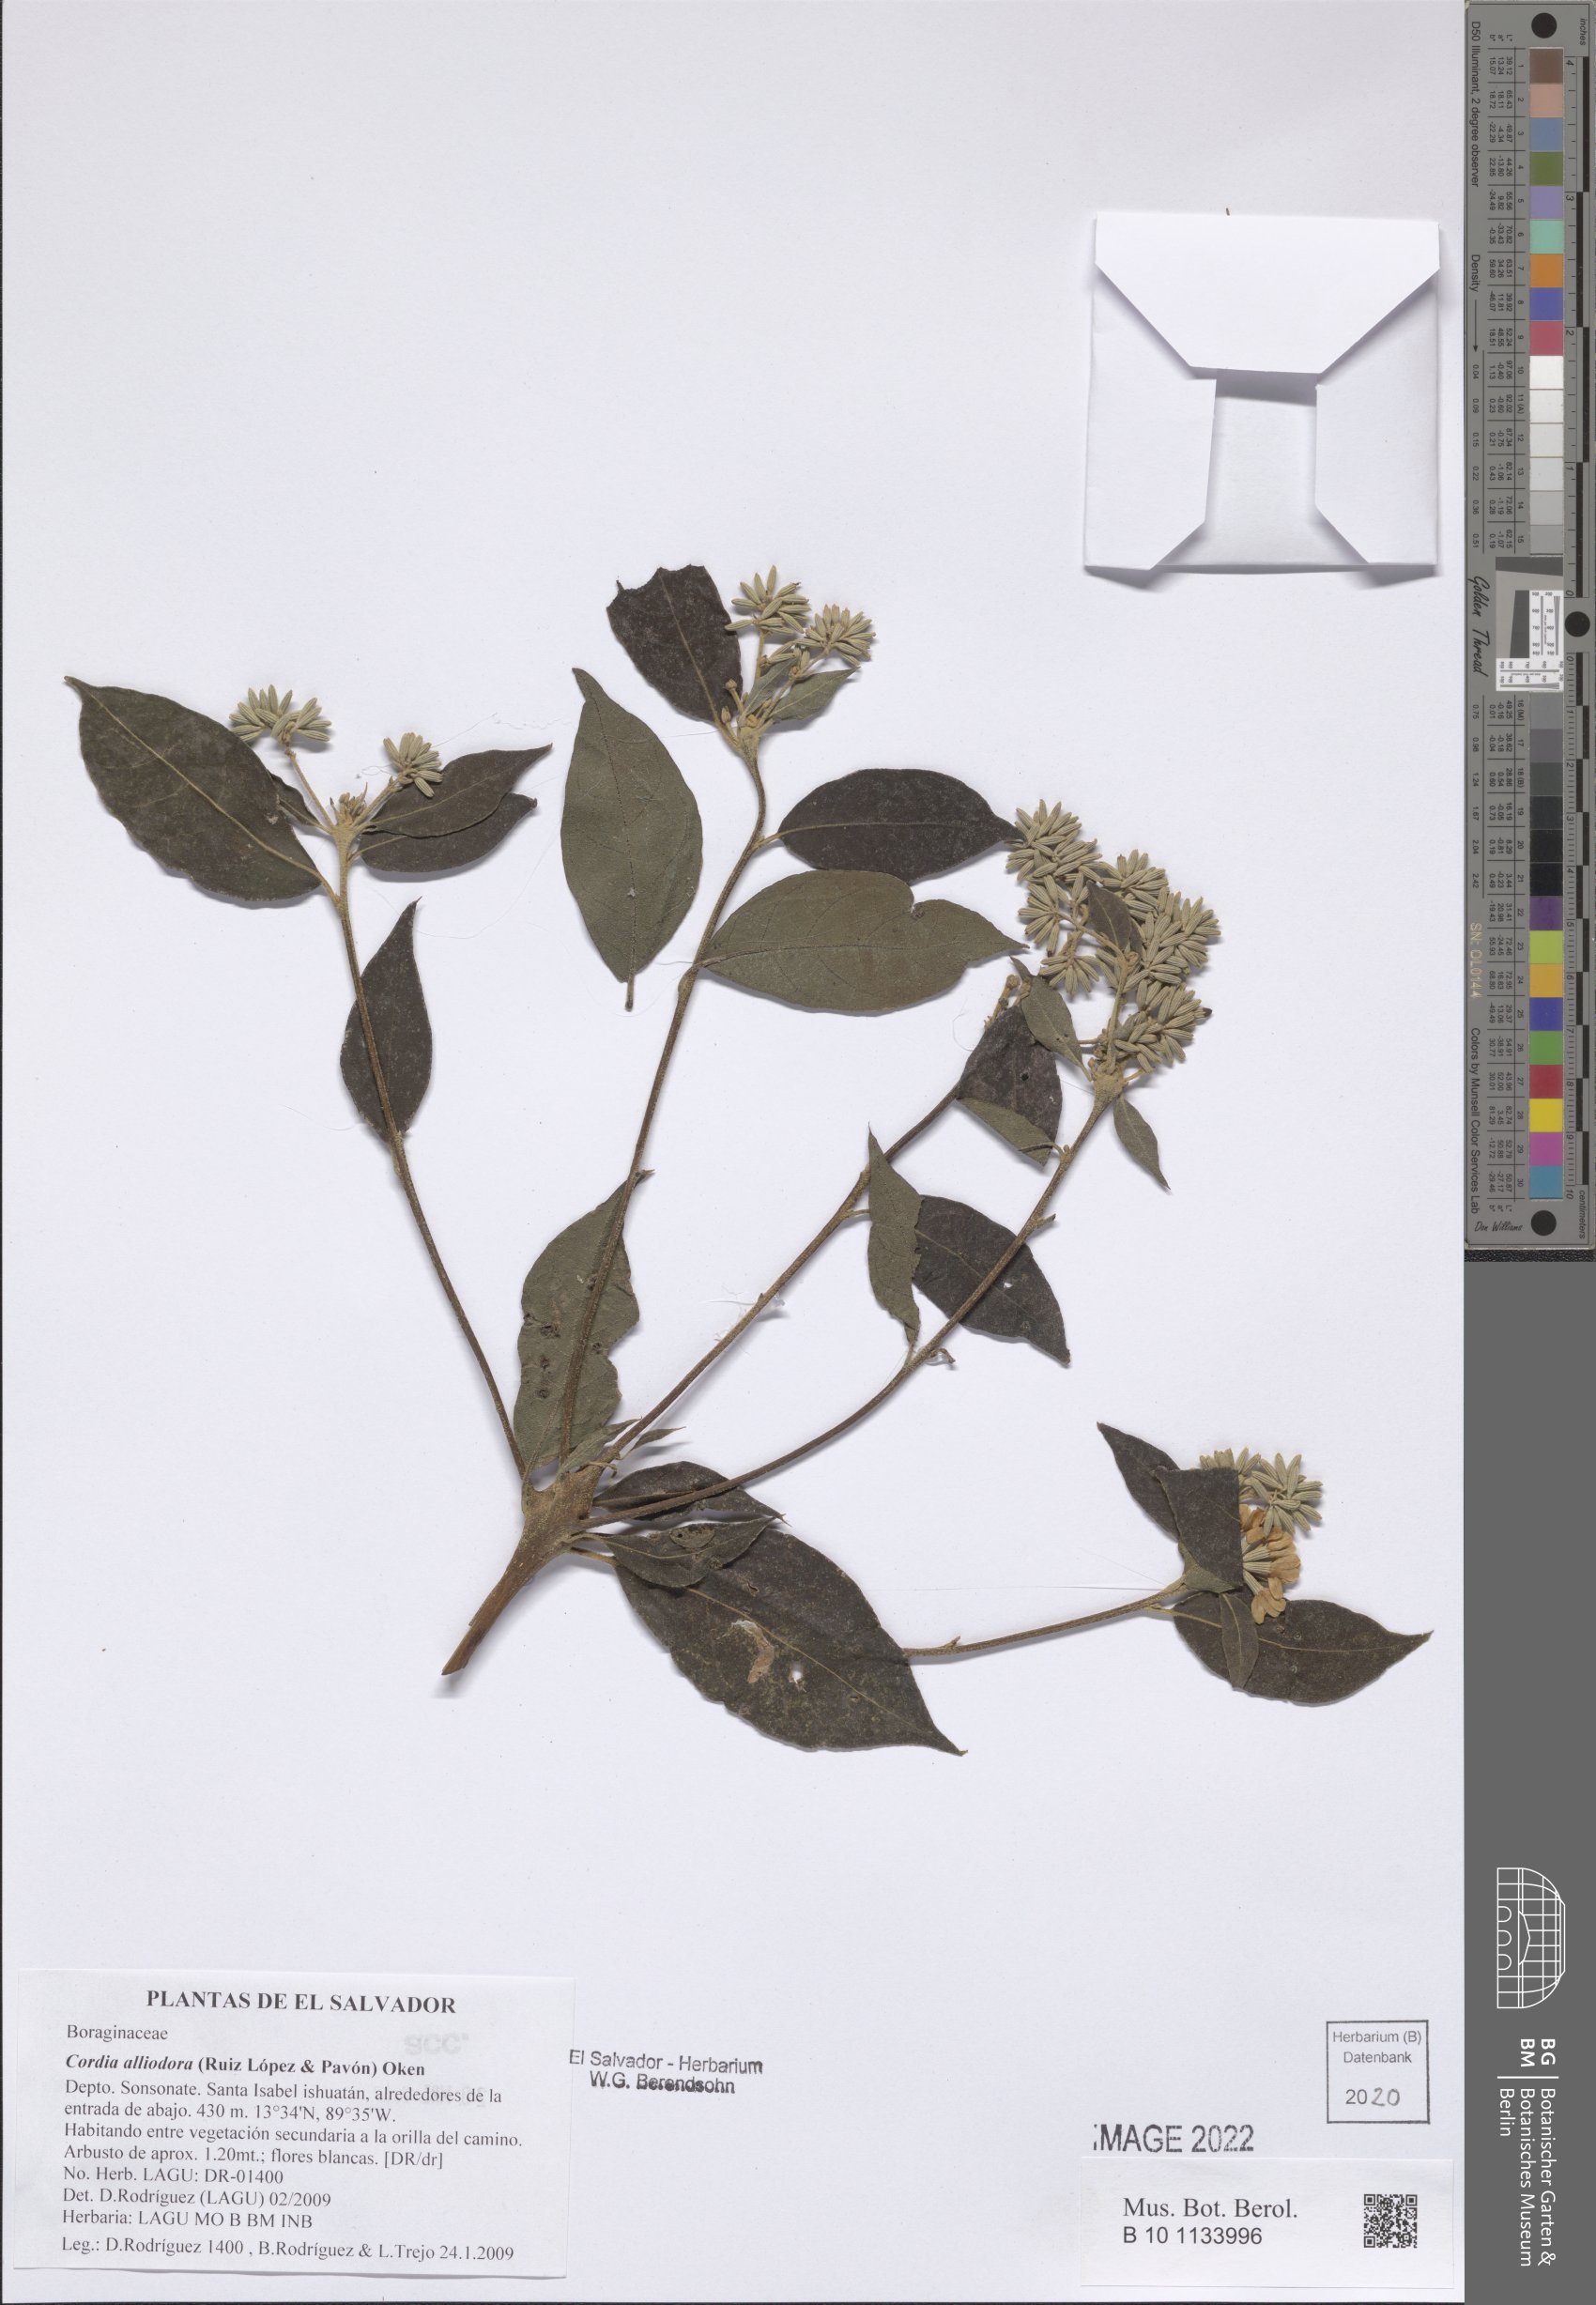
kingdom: Plantae
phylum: Tracheophyta
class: Magnoliopsida
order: Boraginales
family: Cordiaceae
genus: Cordia
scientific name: Cordia alliodora
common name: Spanish elm
